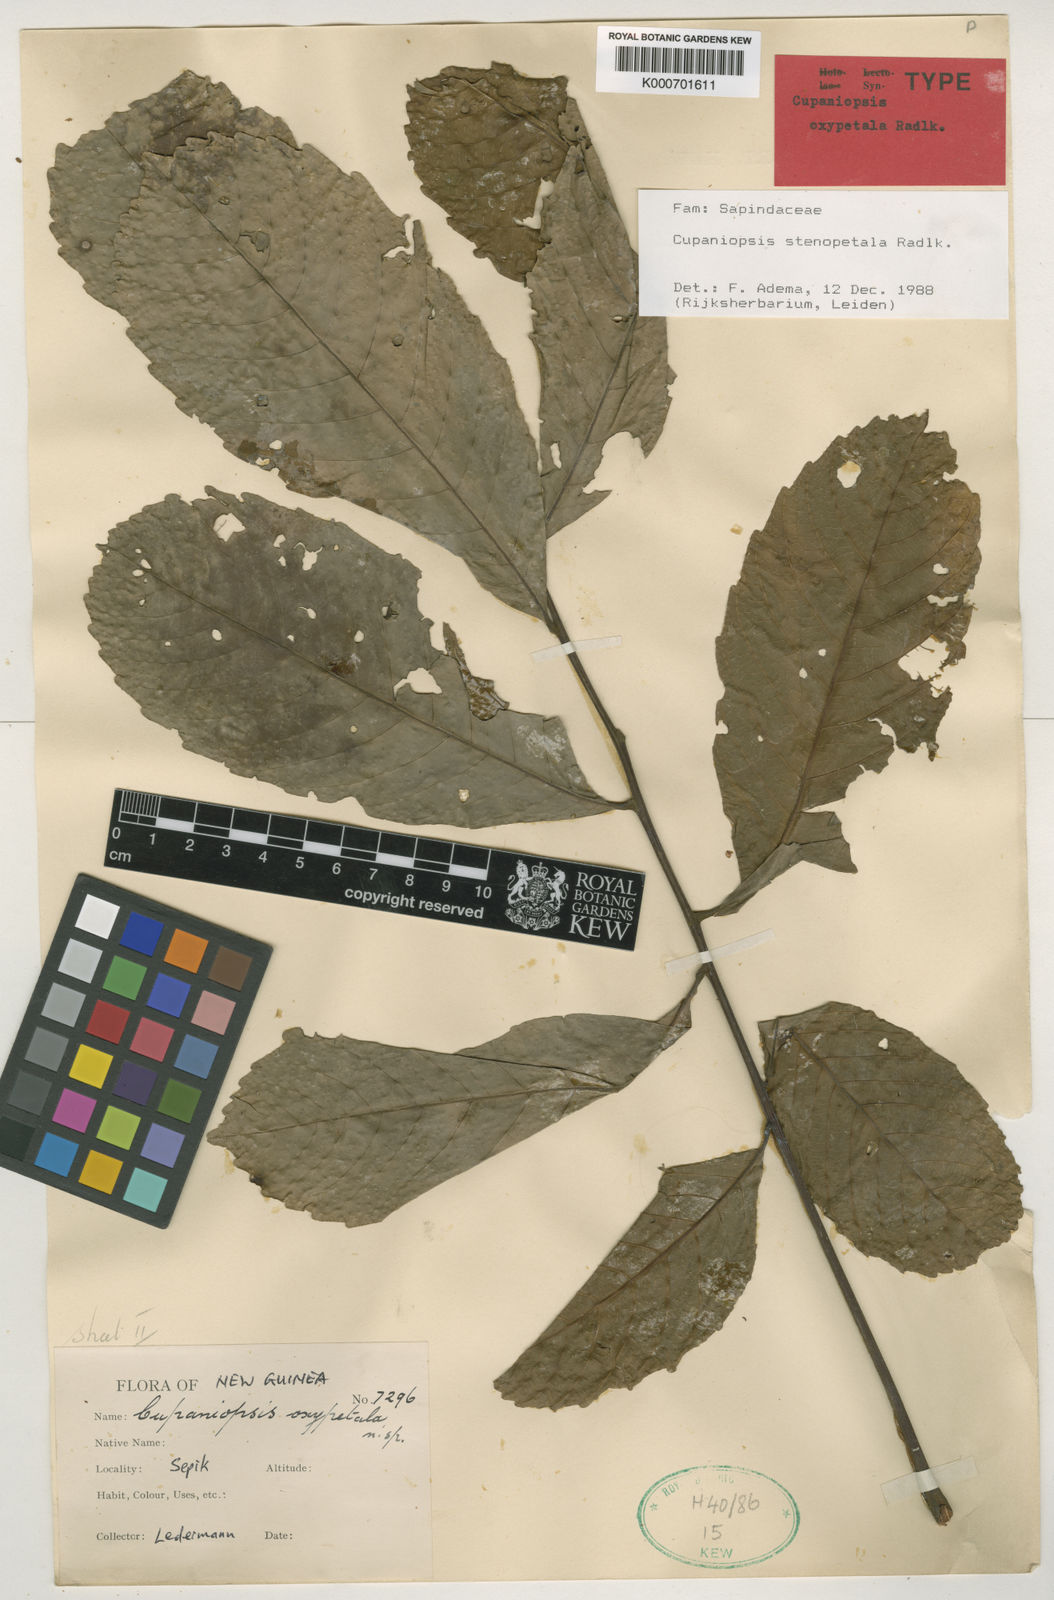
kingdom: Plantae
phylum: Tracheophyta
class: Magnoliopsida
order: Sapindales
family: Sapindaceae
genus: Cupaniopsis
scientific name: Cupaniopsis stenopetala
